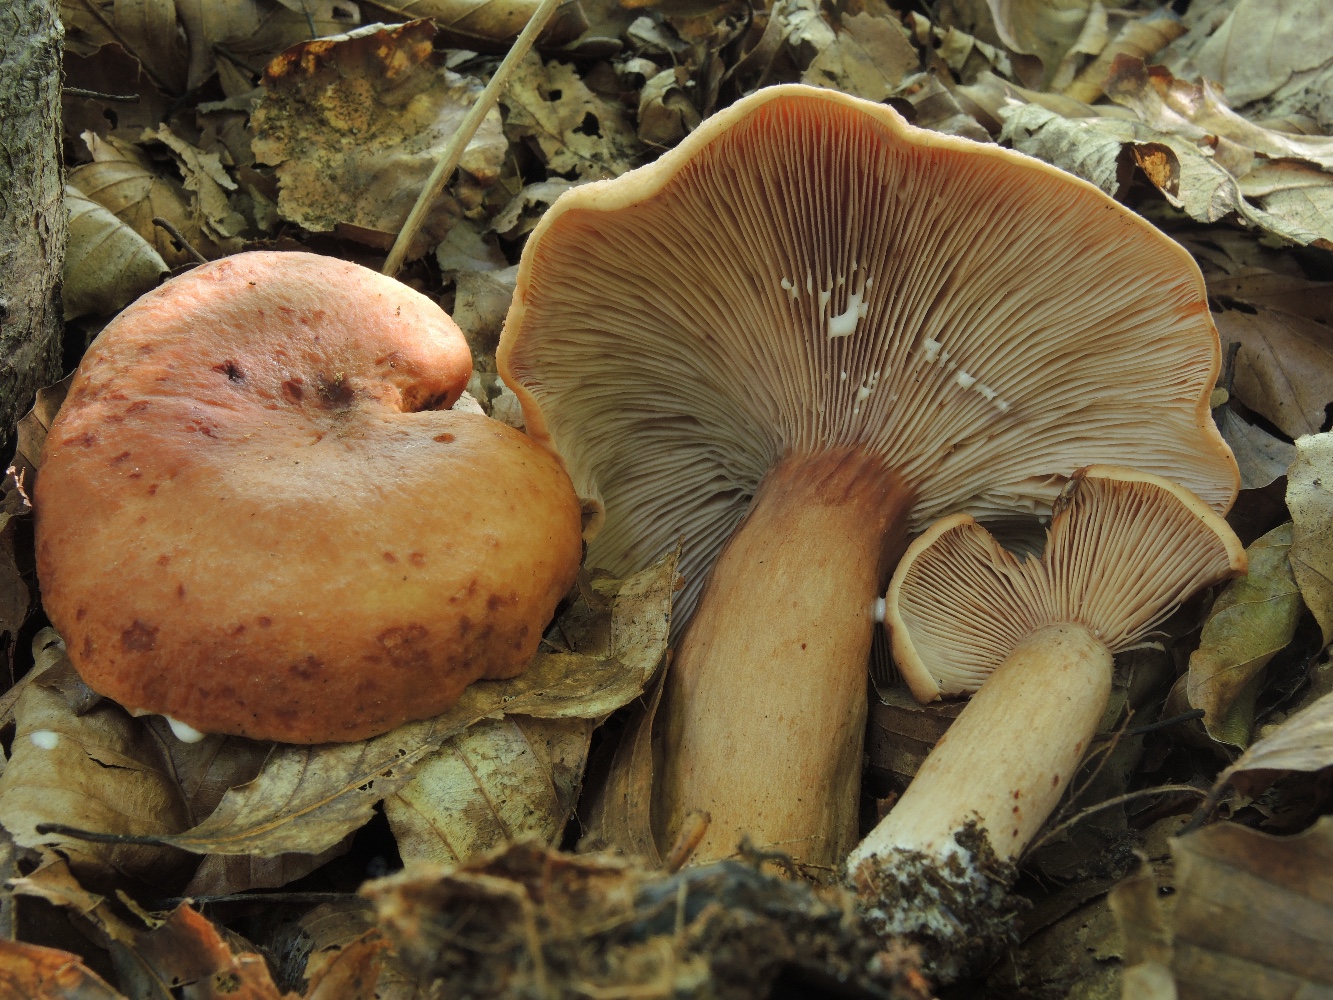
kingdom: Fungi
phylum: Basidiomycota
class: Agaricomycetes
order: Russulales
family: Russulaceae
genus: Lactarius
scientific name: Lactarius rubrocinctus
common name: halsbånd-mælkehat
